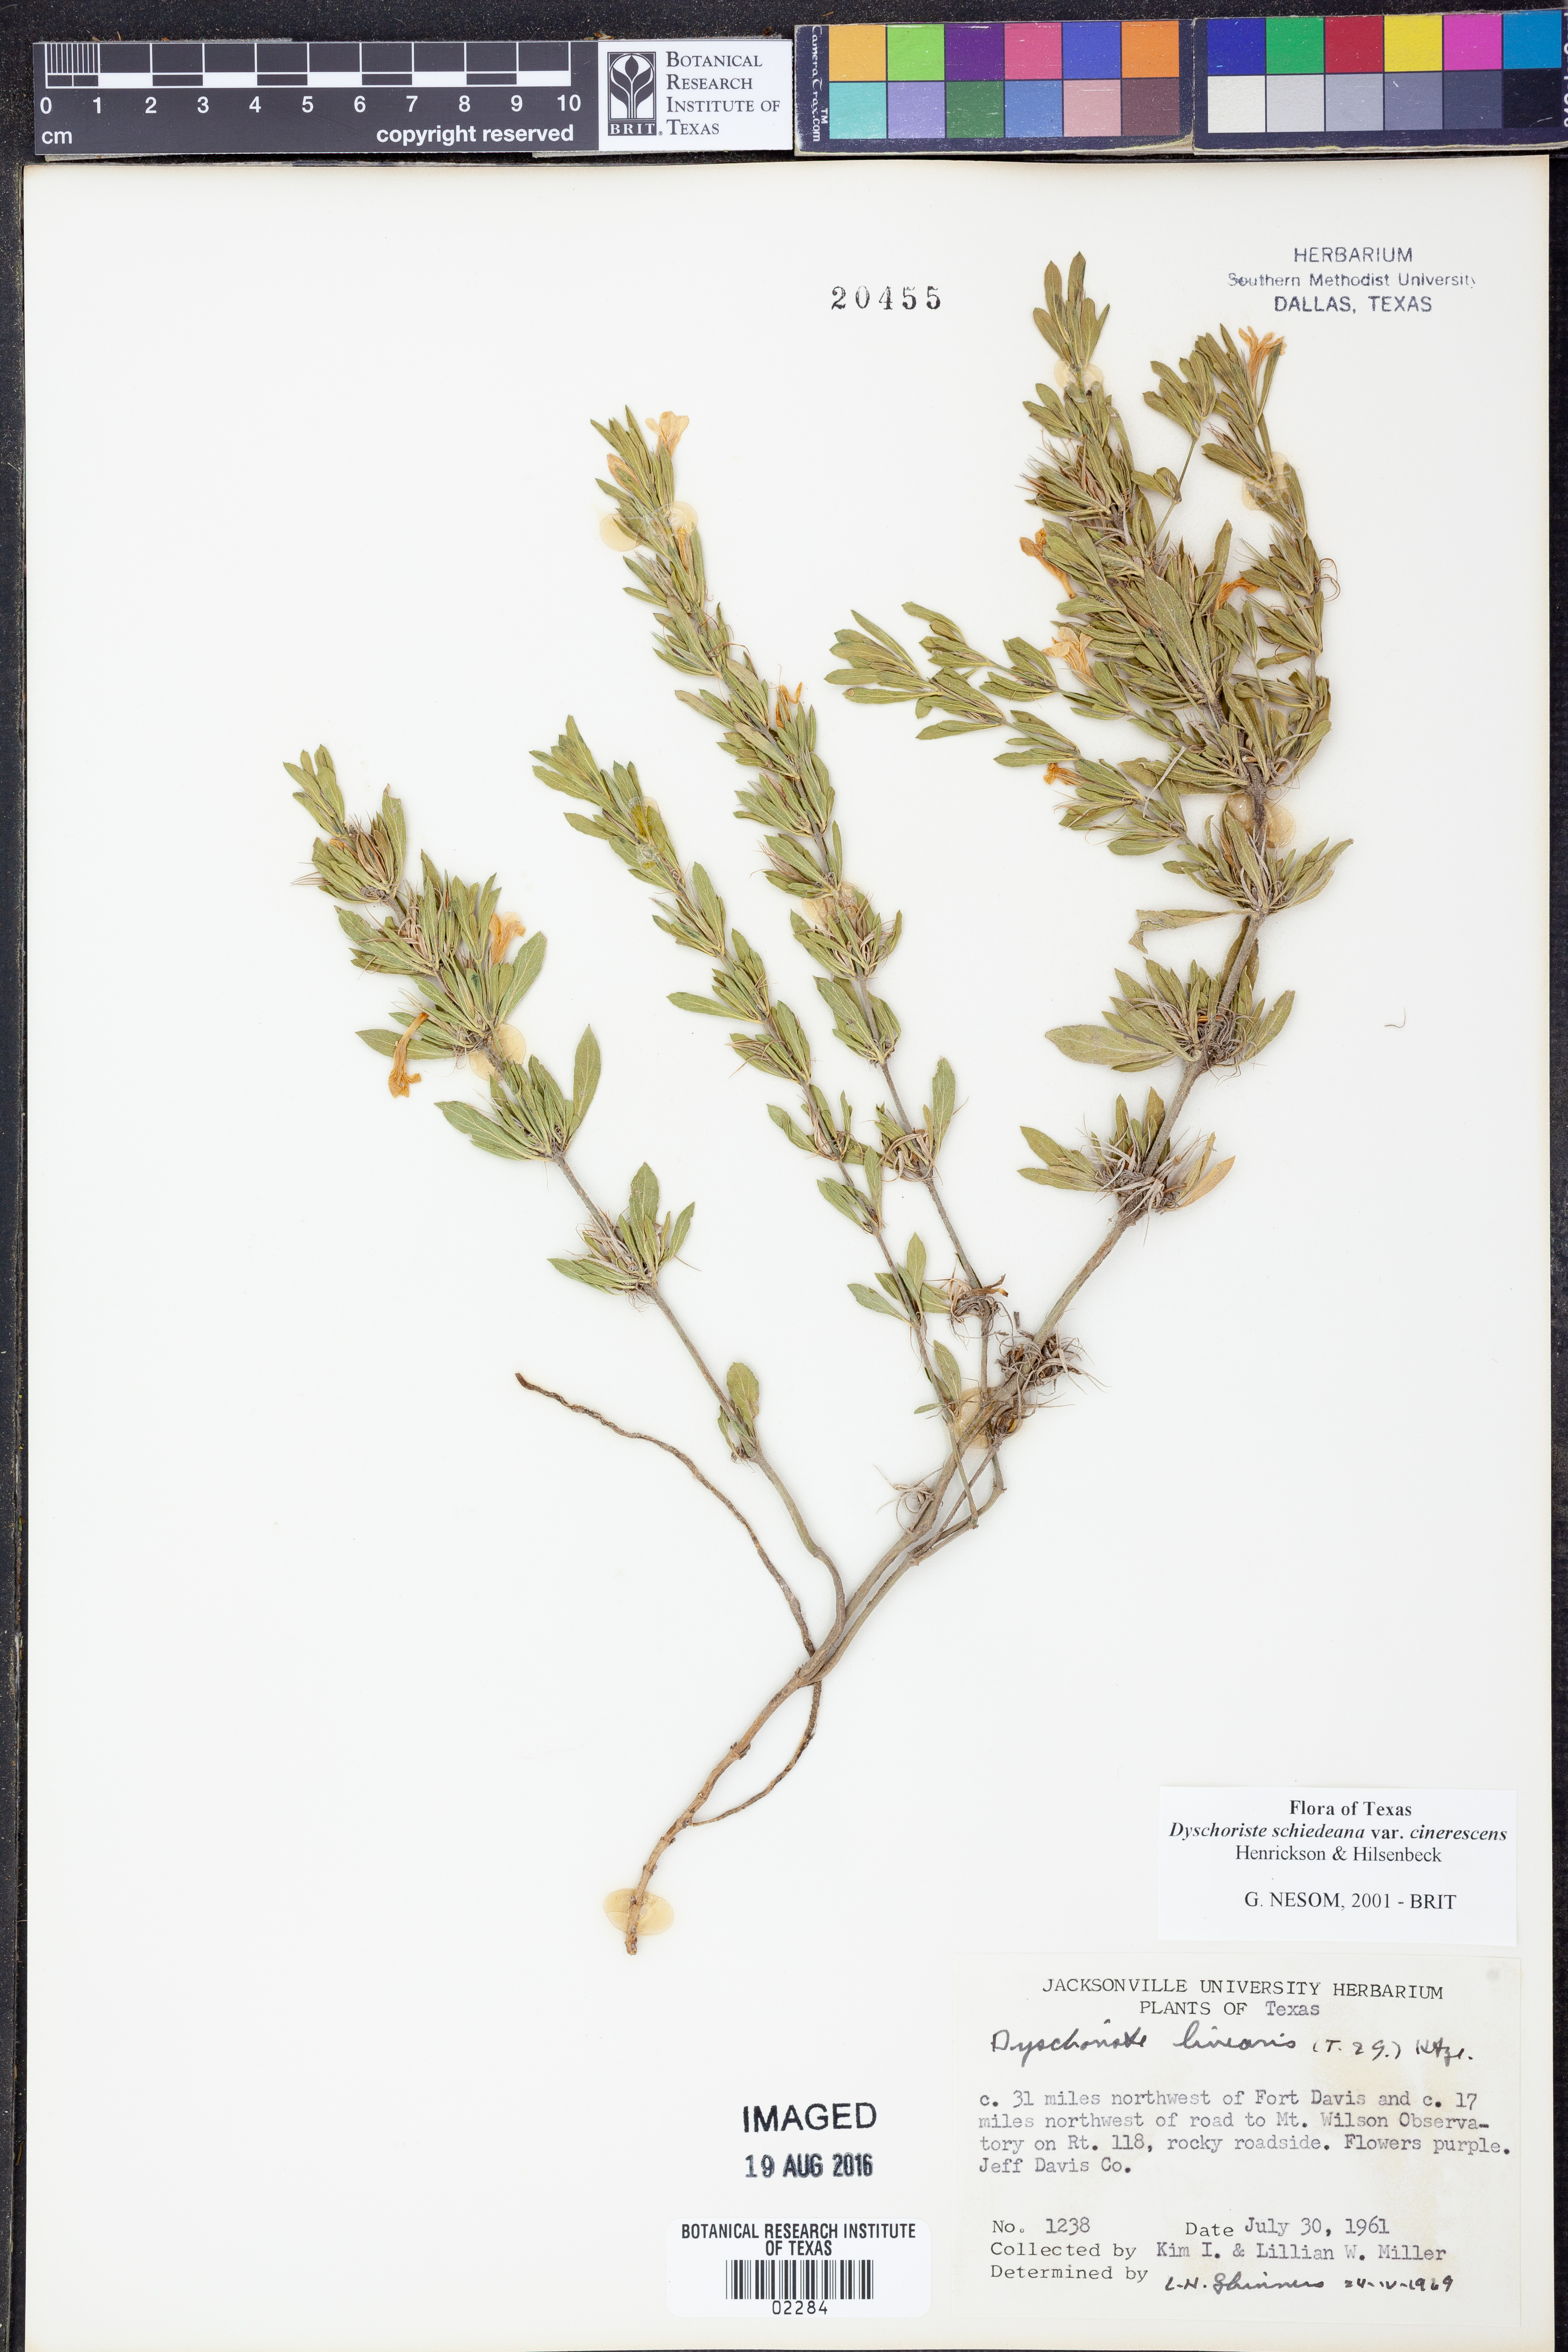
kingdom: Plantae
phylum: Tracheophyta
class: Magnoliopsida
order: Lamiales
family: Acanthaceae
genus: Dyschoriste
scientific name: Dyschoriste cinerascens
